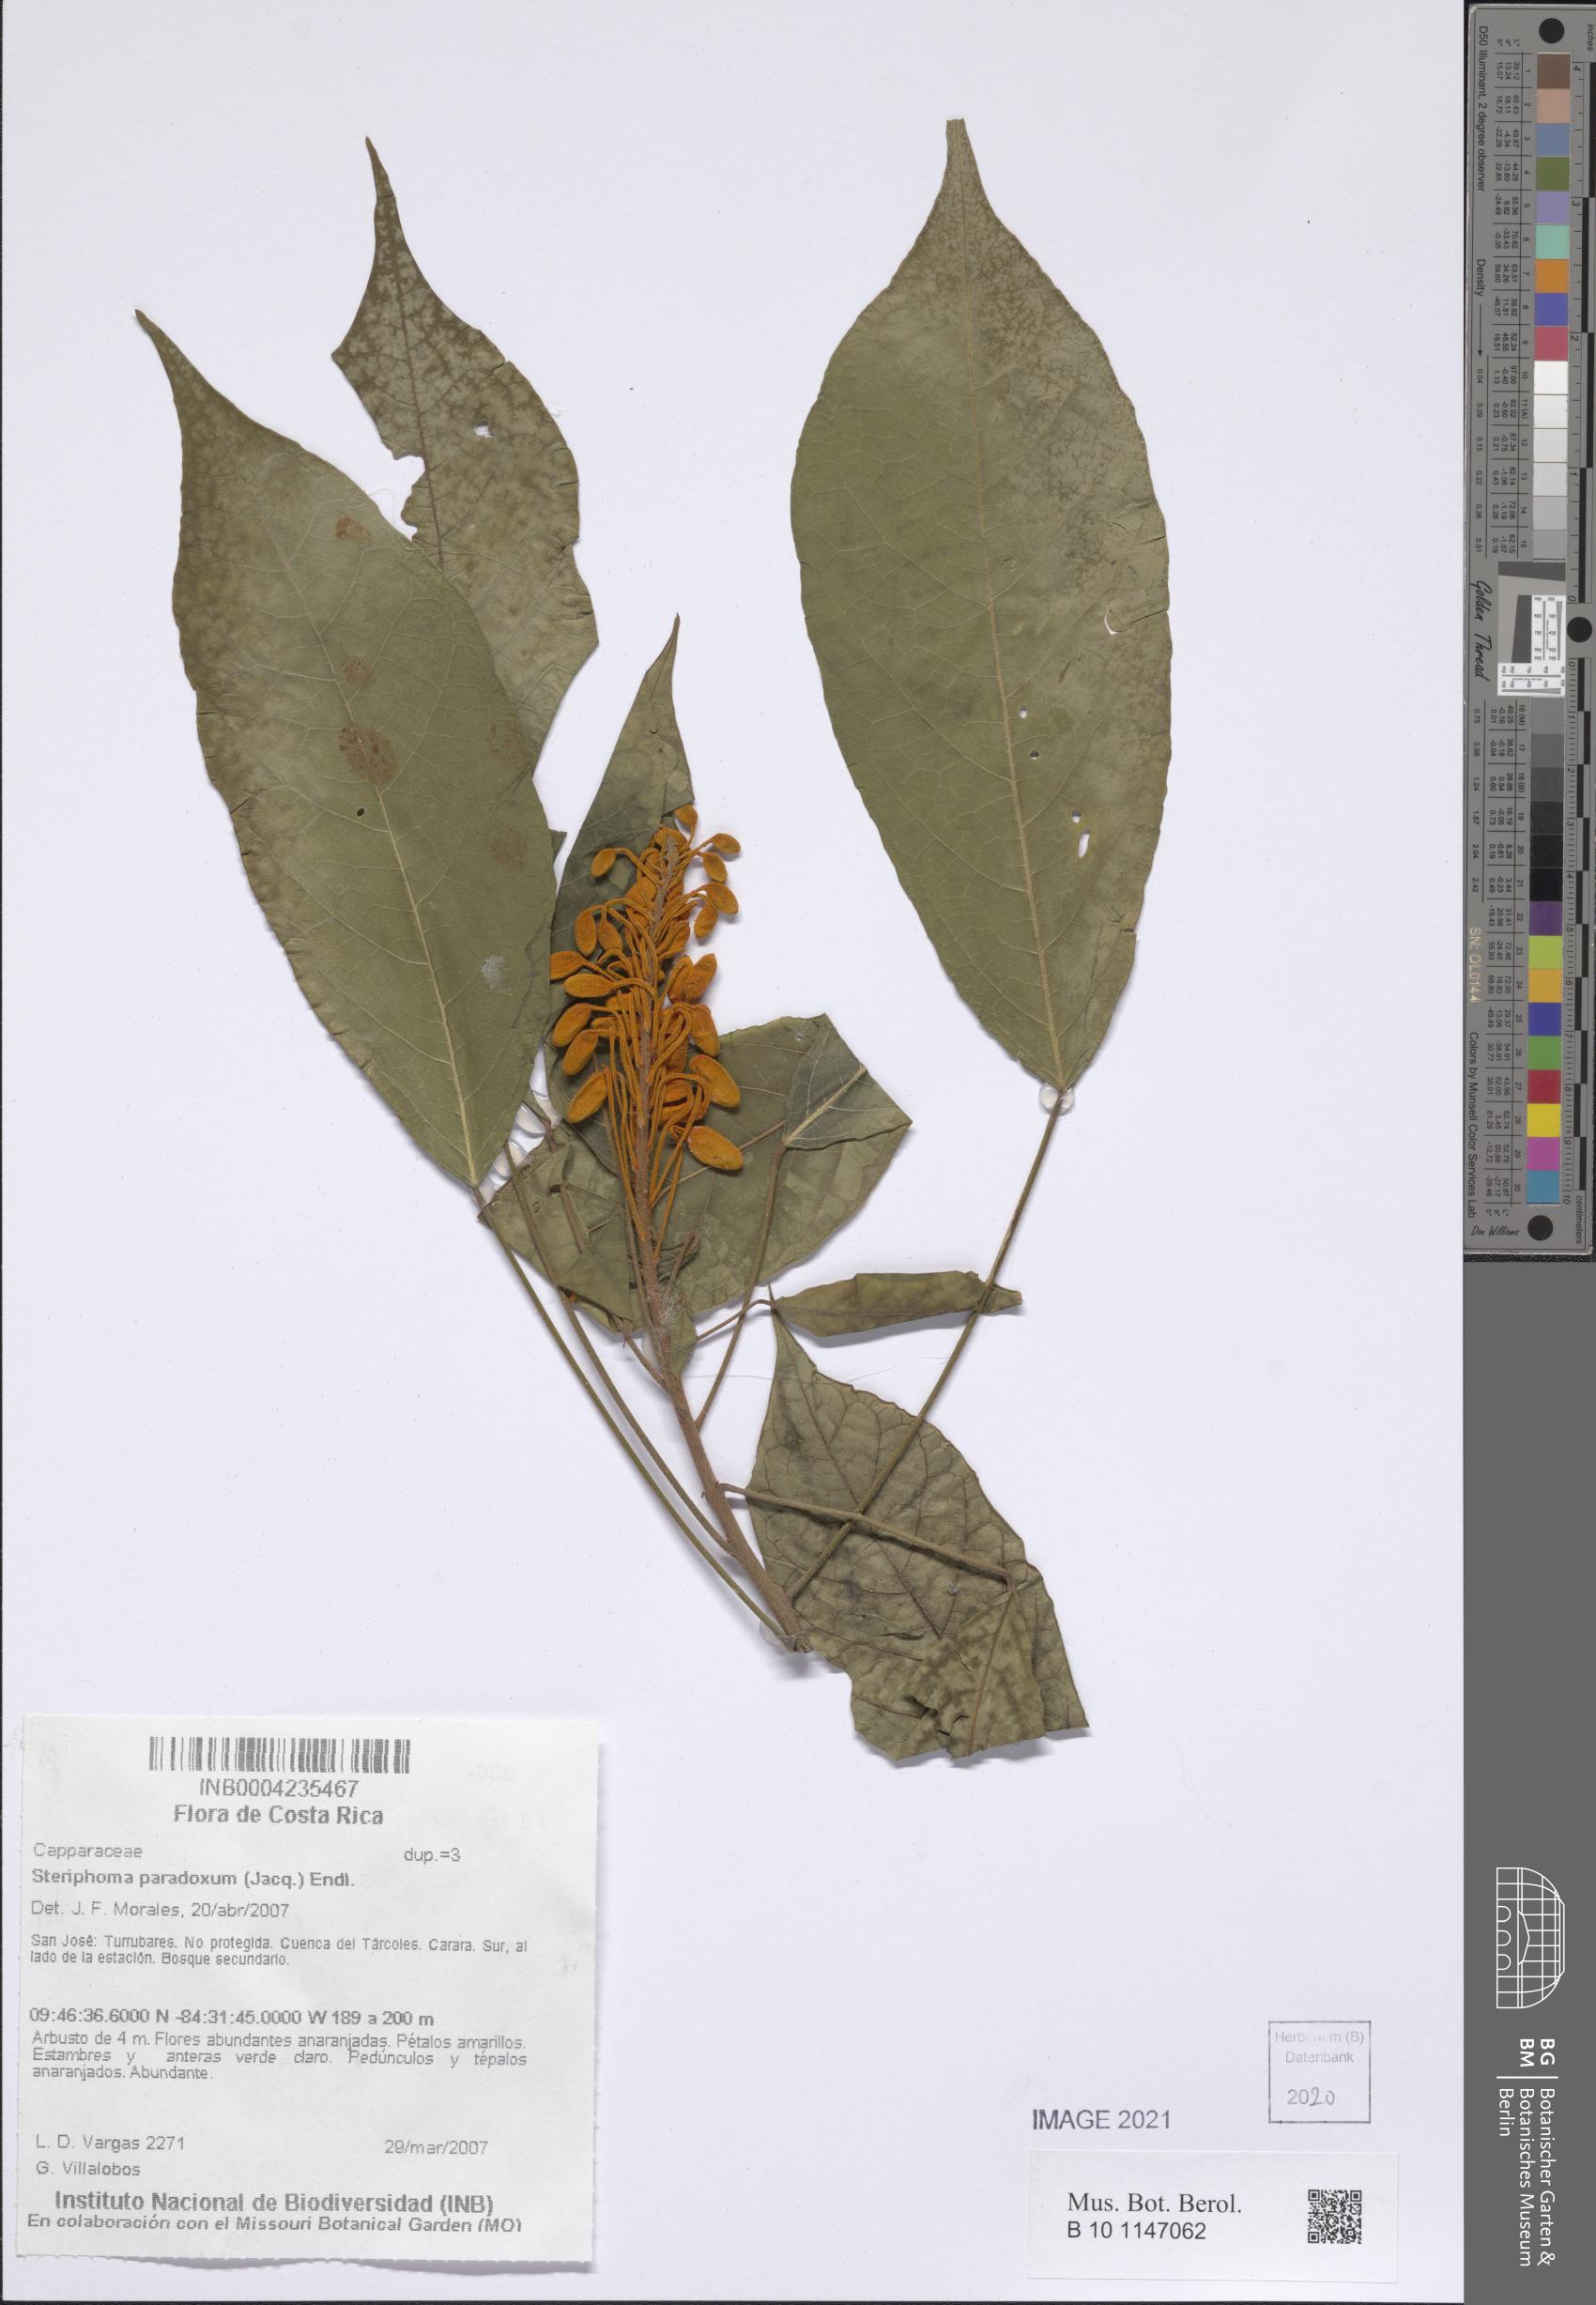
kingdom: Plantae
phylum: Tracheophyta
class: Magnoliopsida
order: Brassicales
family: Capparaceae
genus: Steriphoma
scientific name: Steriphoma paradoxum
